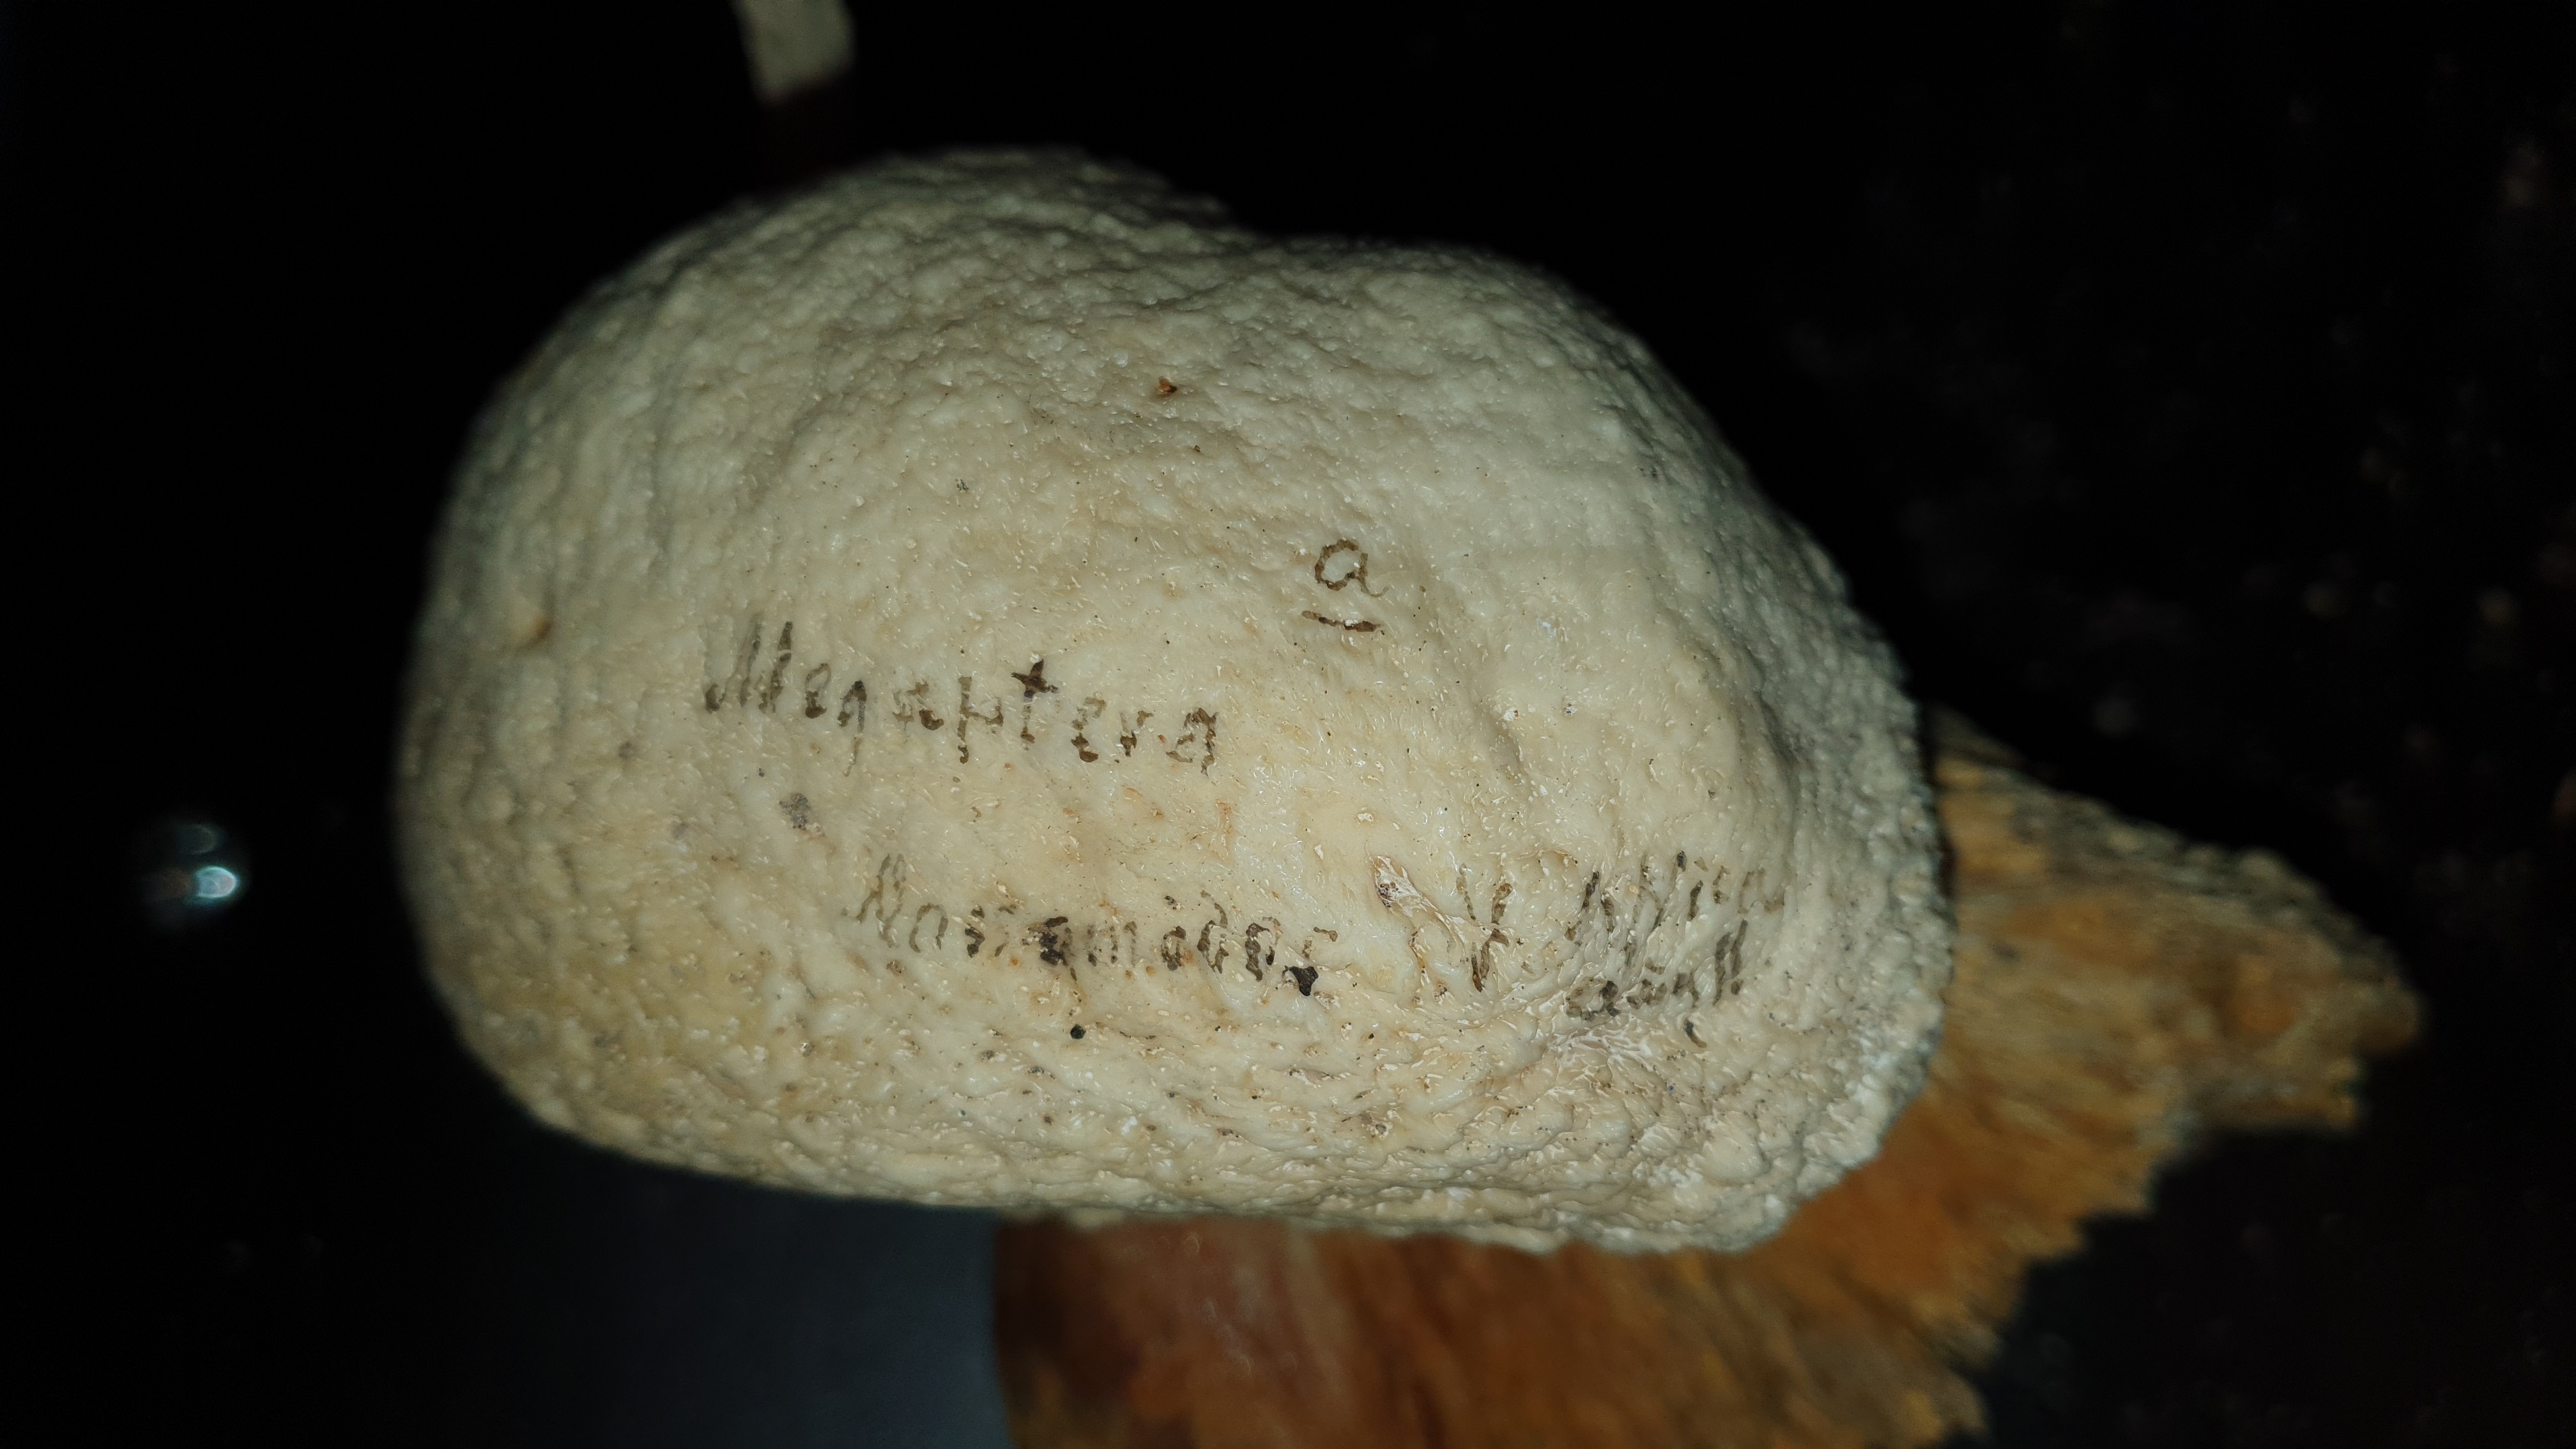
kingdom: Animalia
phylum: Chordata
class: Mammalia
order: Cetacea
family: Balaenopteridae
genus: Megaptera
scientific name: Megaptera novaeangliae
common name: Humpback whale
